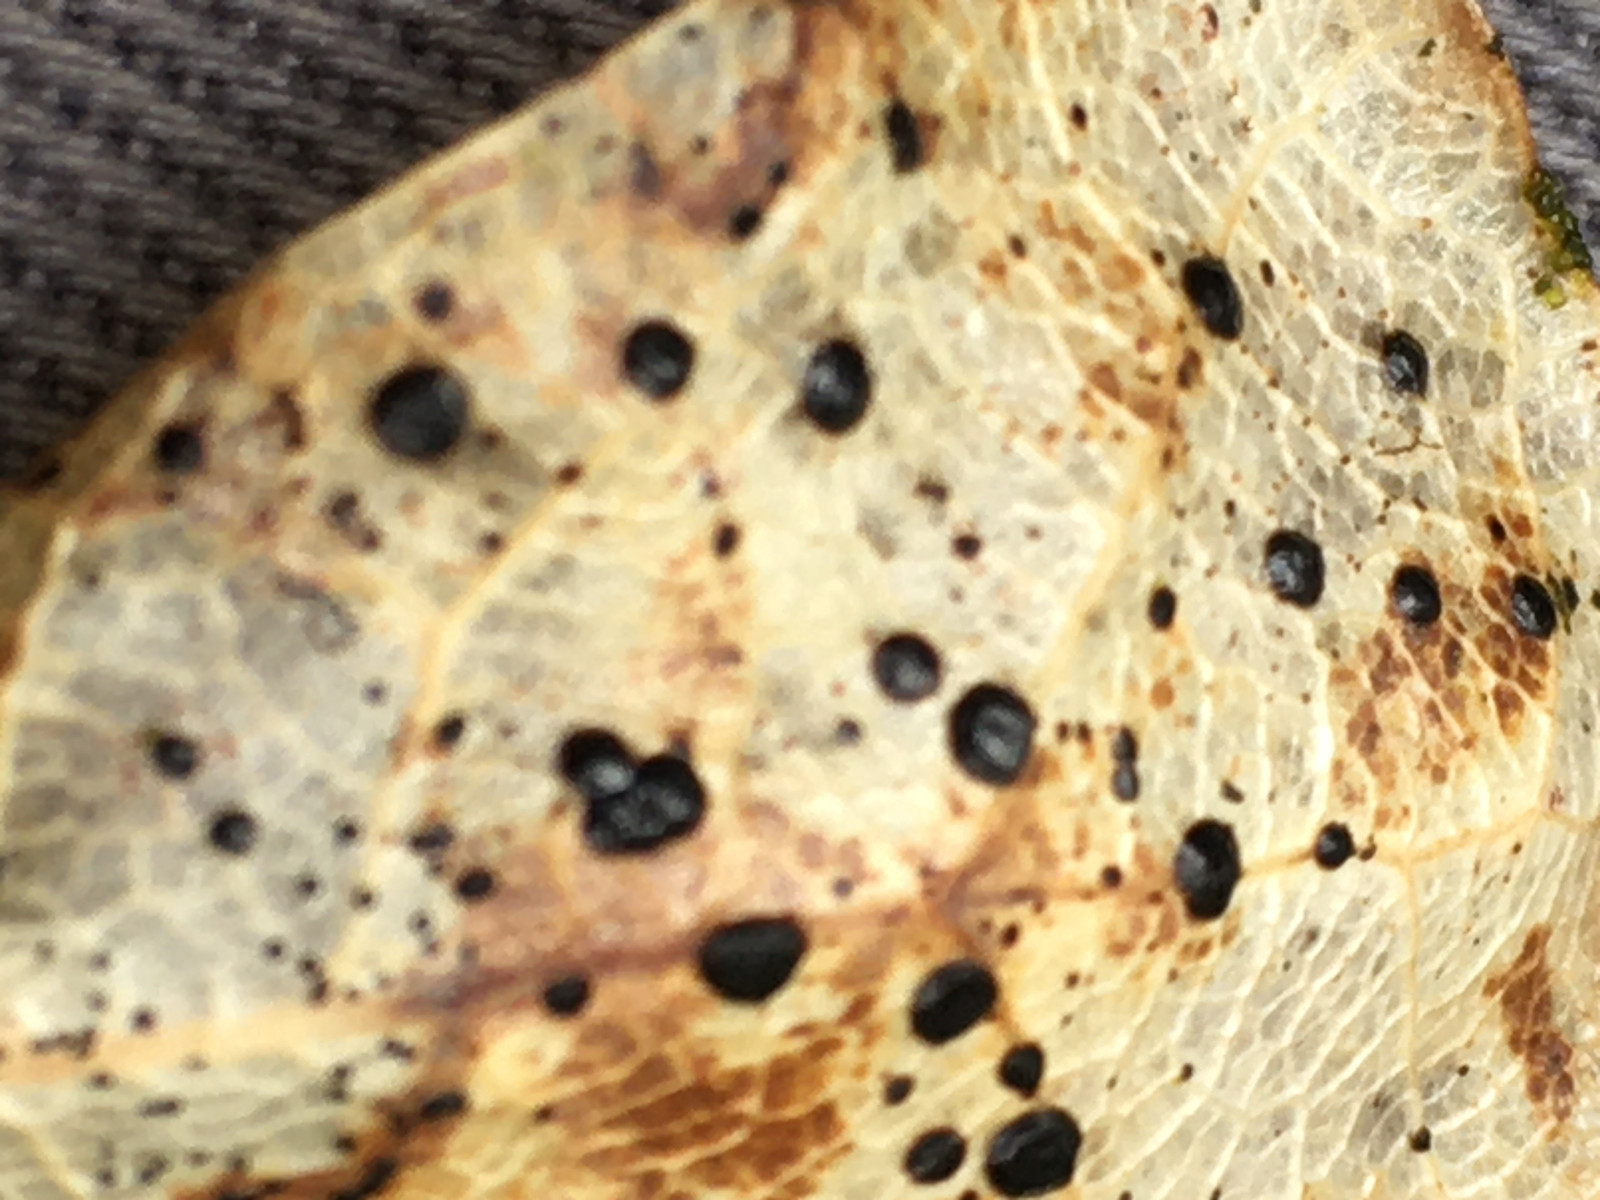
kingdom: Fungi
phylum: Ascomycota
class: Leotiomycetes
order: Rhytismatales
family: Rhytismataceae
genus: Coccomyces
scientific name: Coccomyces
